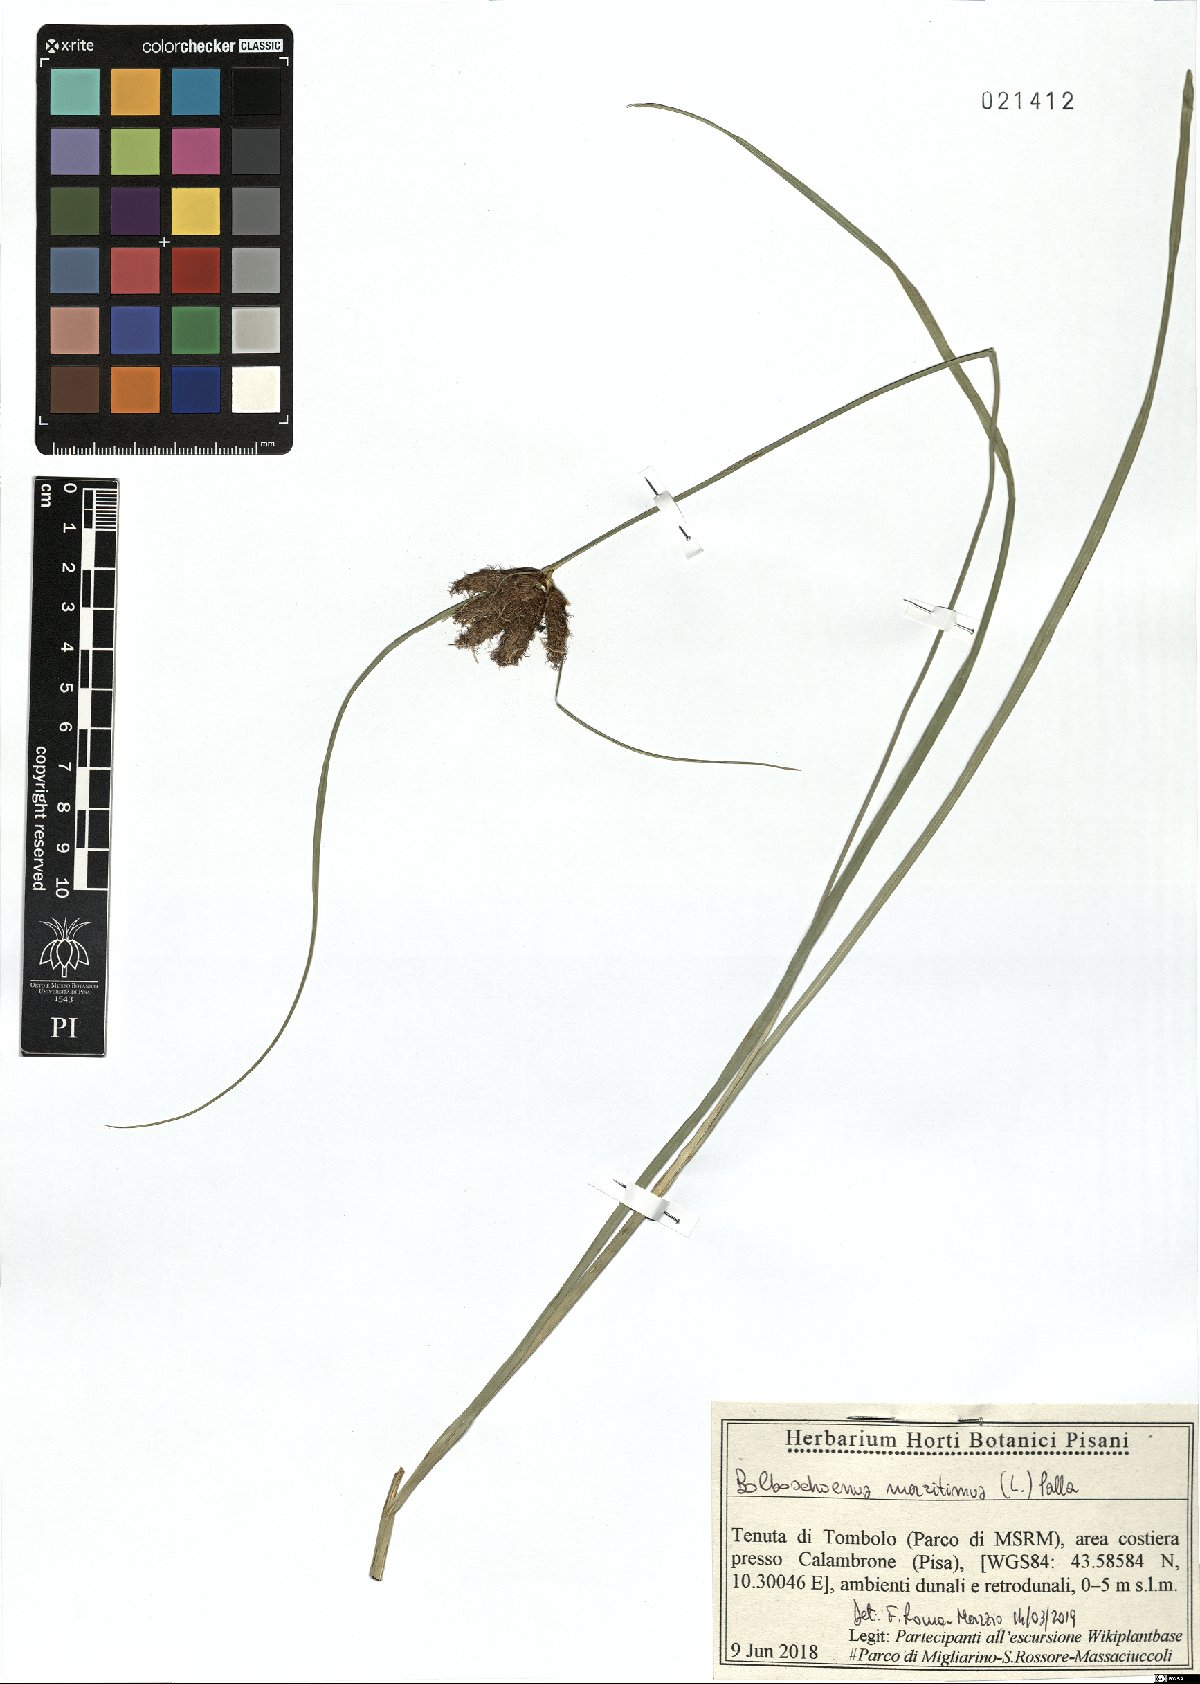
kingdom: Plantae
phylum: Tracheophyta
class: Liliopsida
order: Poales
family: Cyperaceae
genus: Bolboschoenus
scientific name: Bolboschoenus maritimus
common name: Sea club-rush
